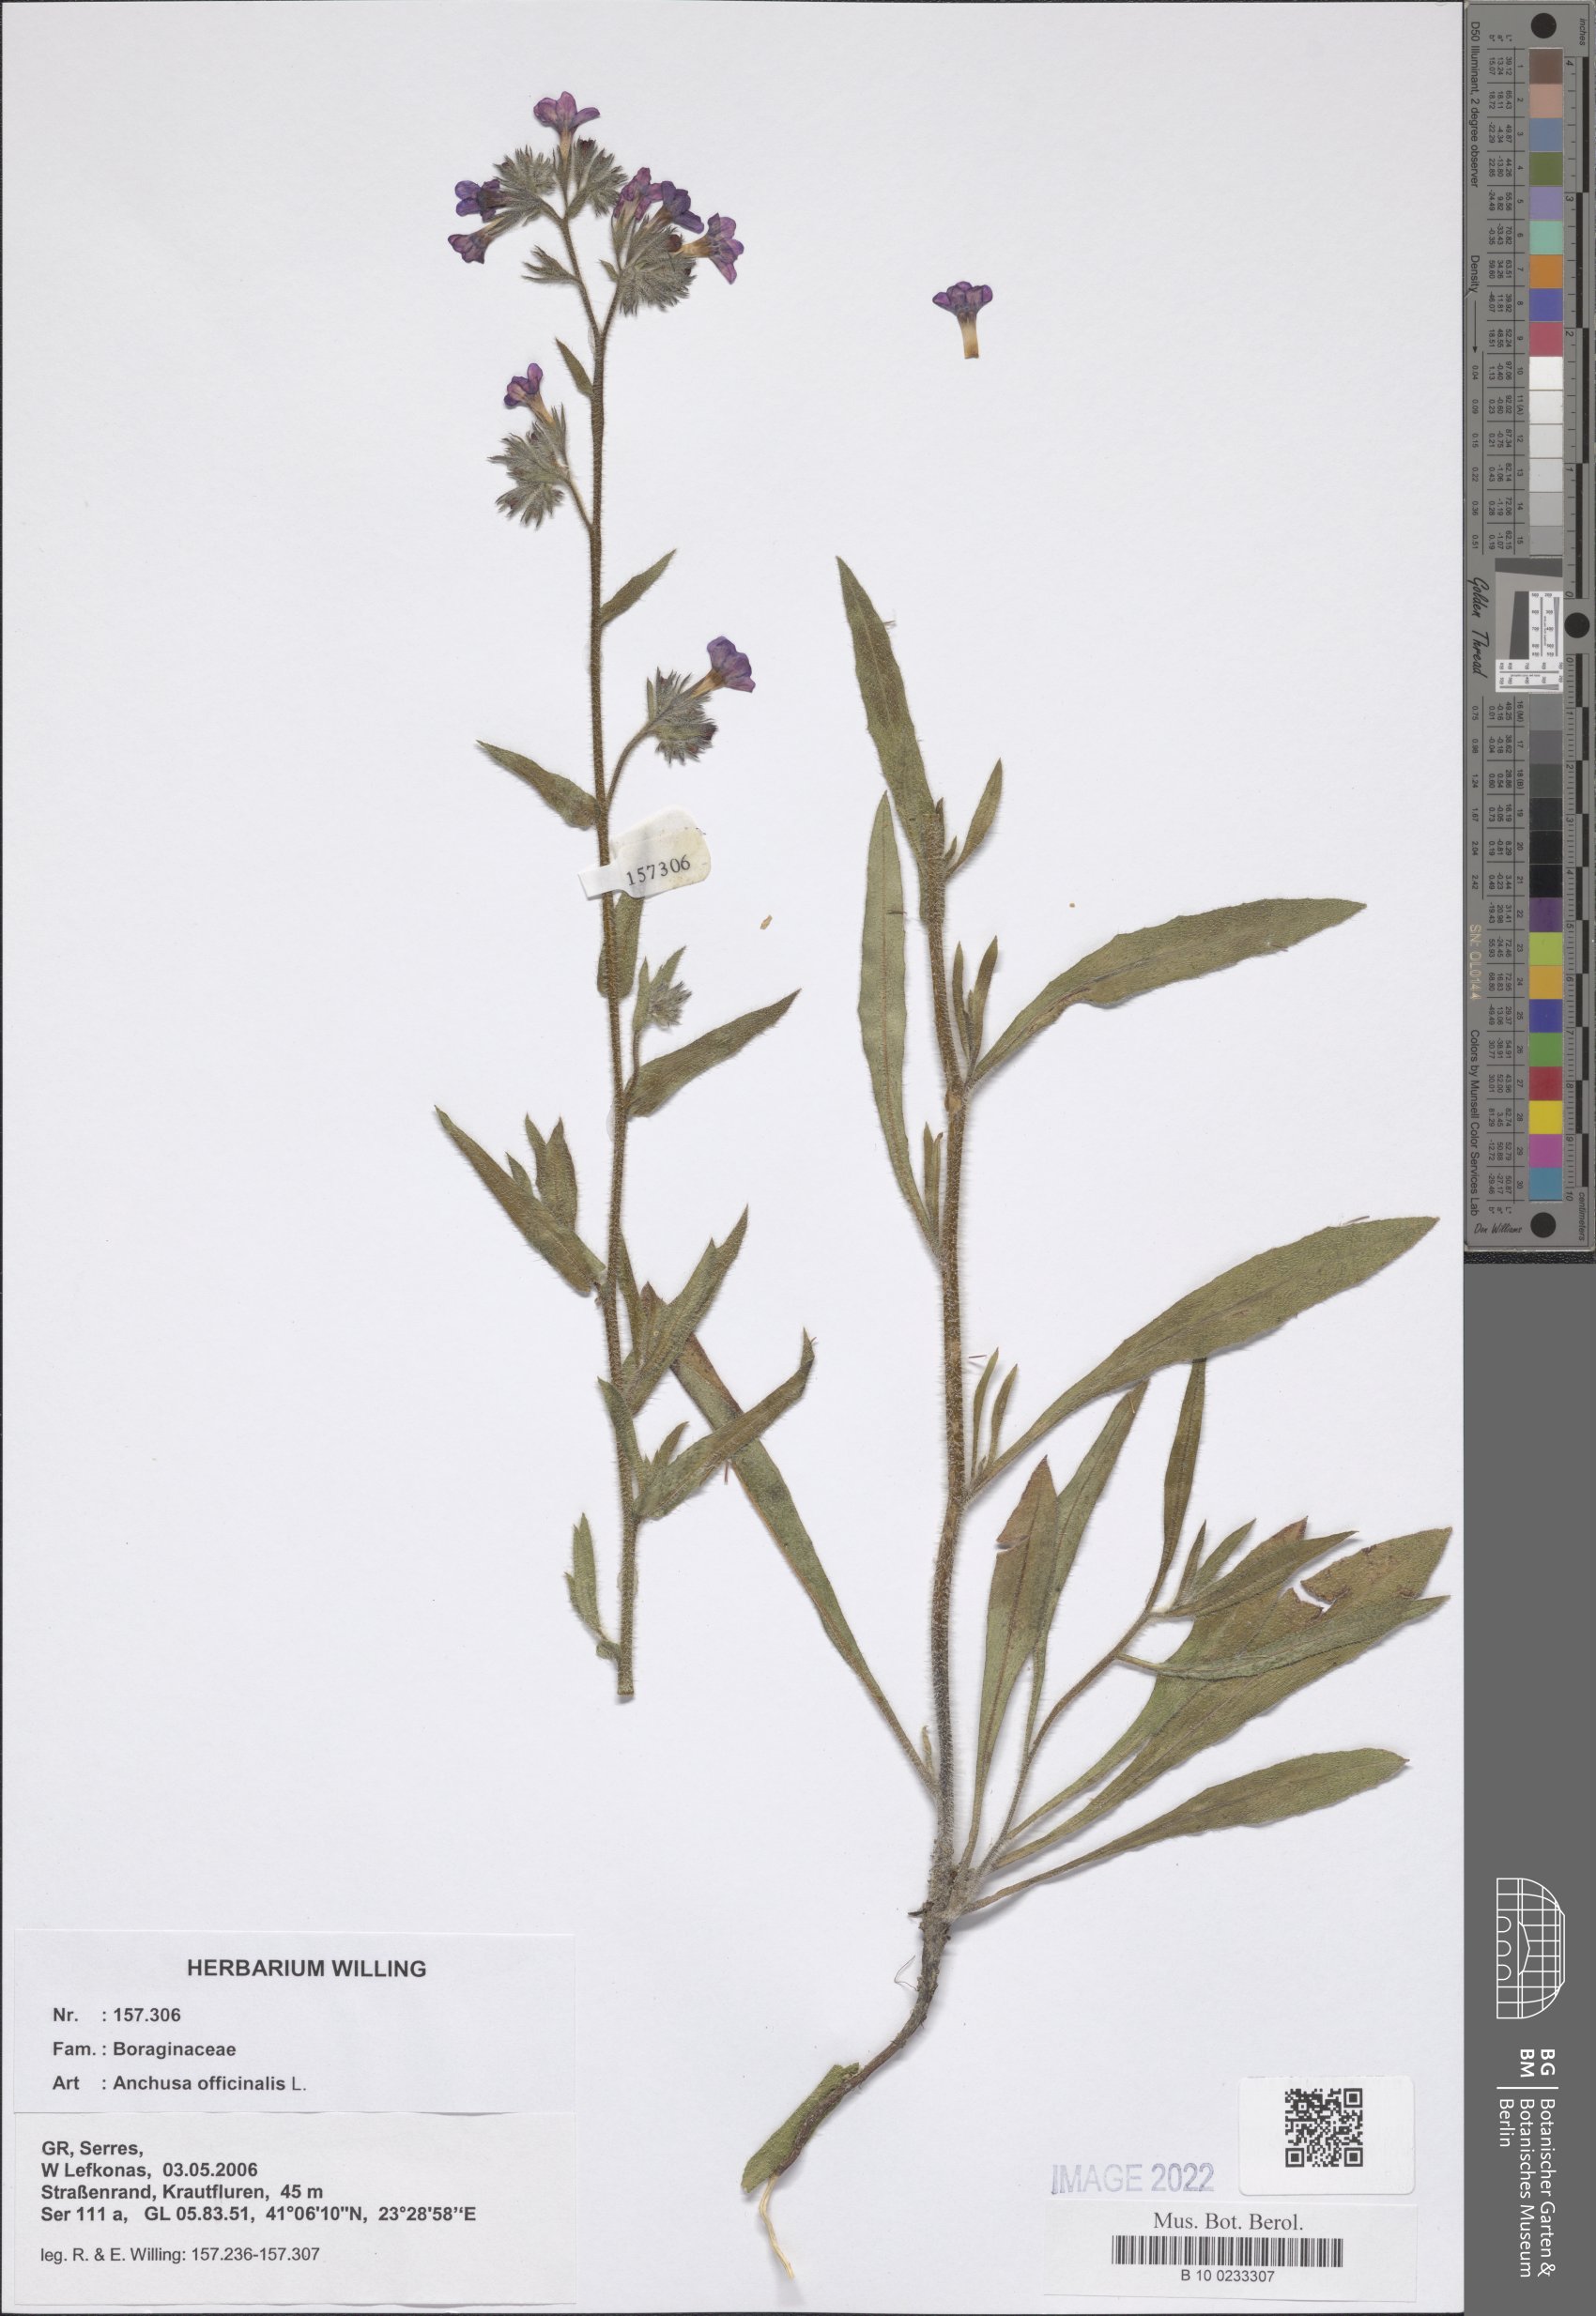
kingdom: Plantae
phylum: Tracheophyta
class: Magnoliopsida
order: Boraginales
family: Boraginaceae
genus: Anchusa
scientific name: Anchusa officinalis
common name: Alkanet
